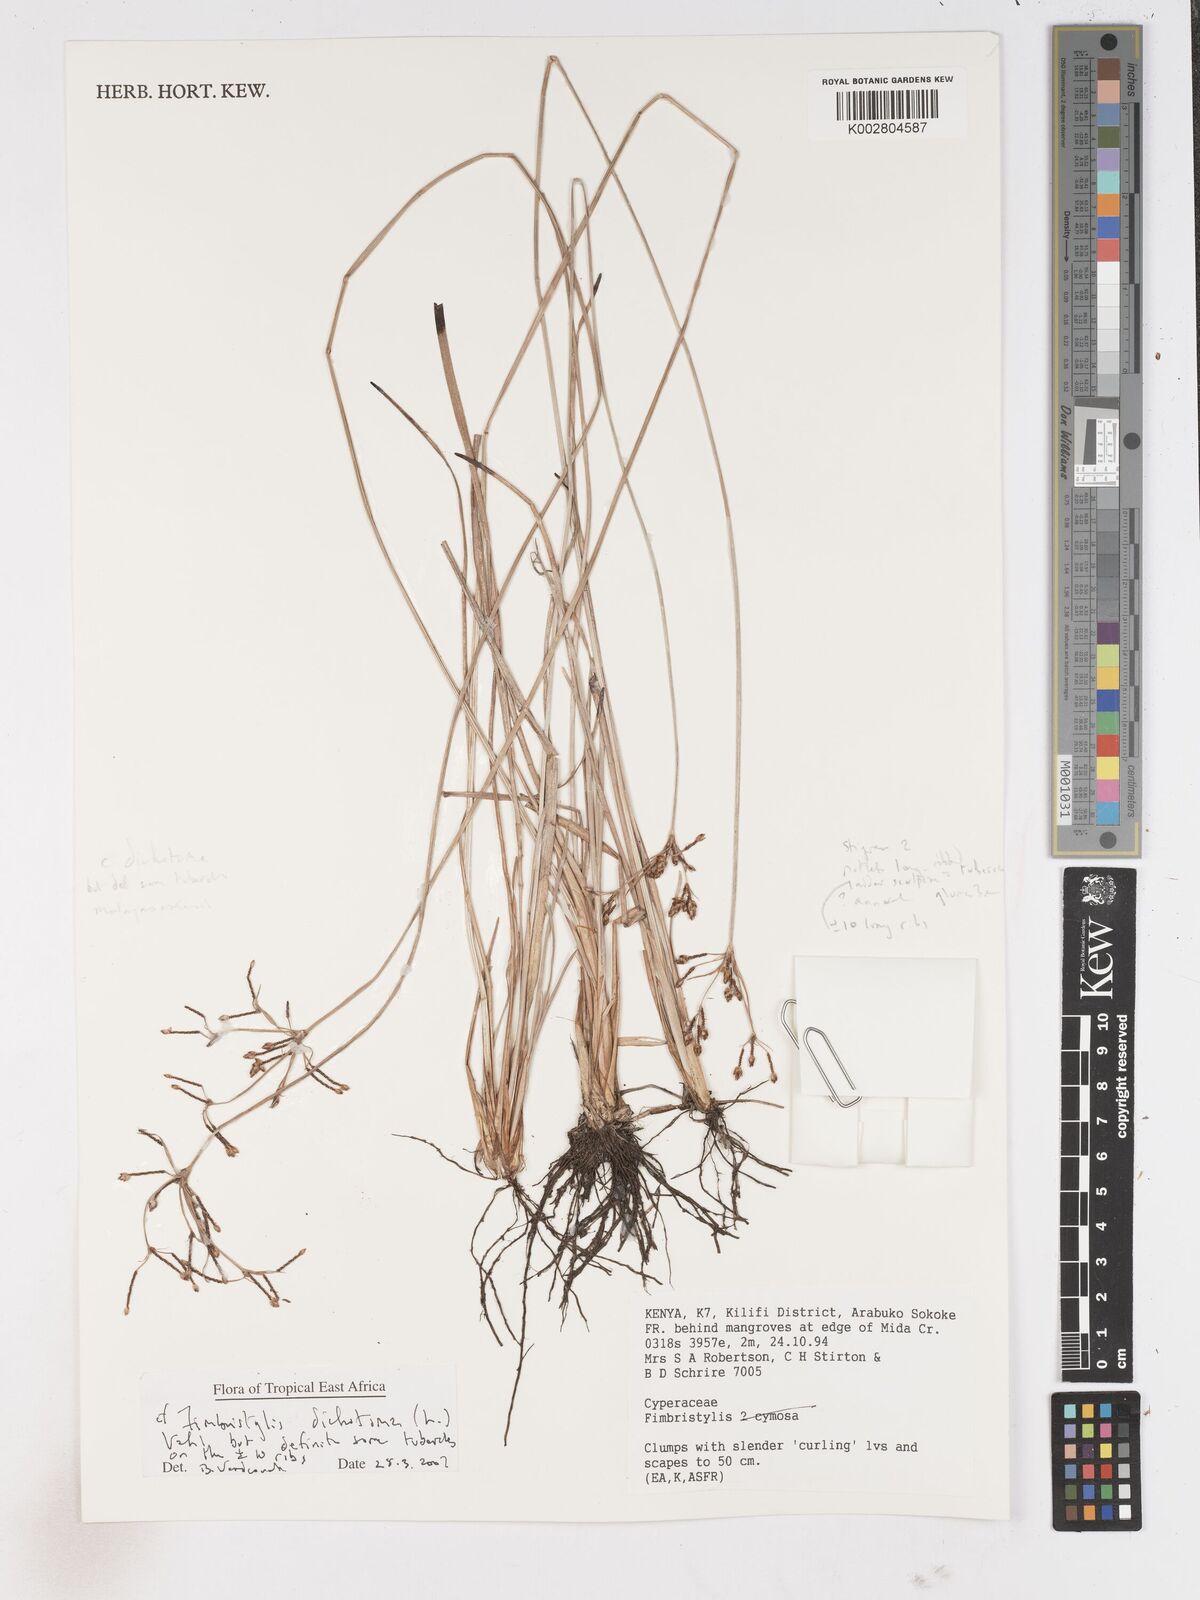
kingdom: Plantae
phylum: Tracheophyta
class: Liliopsida
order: Poales
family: Cyperaceae
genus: Fimbristylis
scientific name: Fimbristylis dichotoma
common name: Forked fimbry
